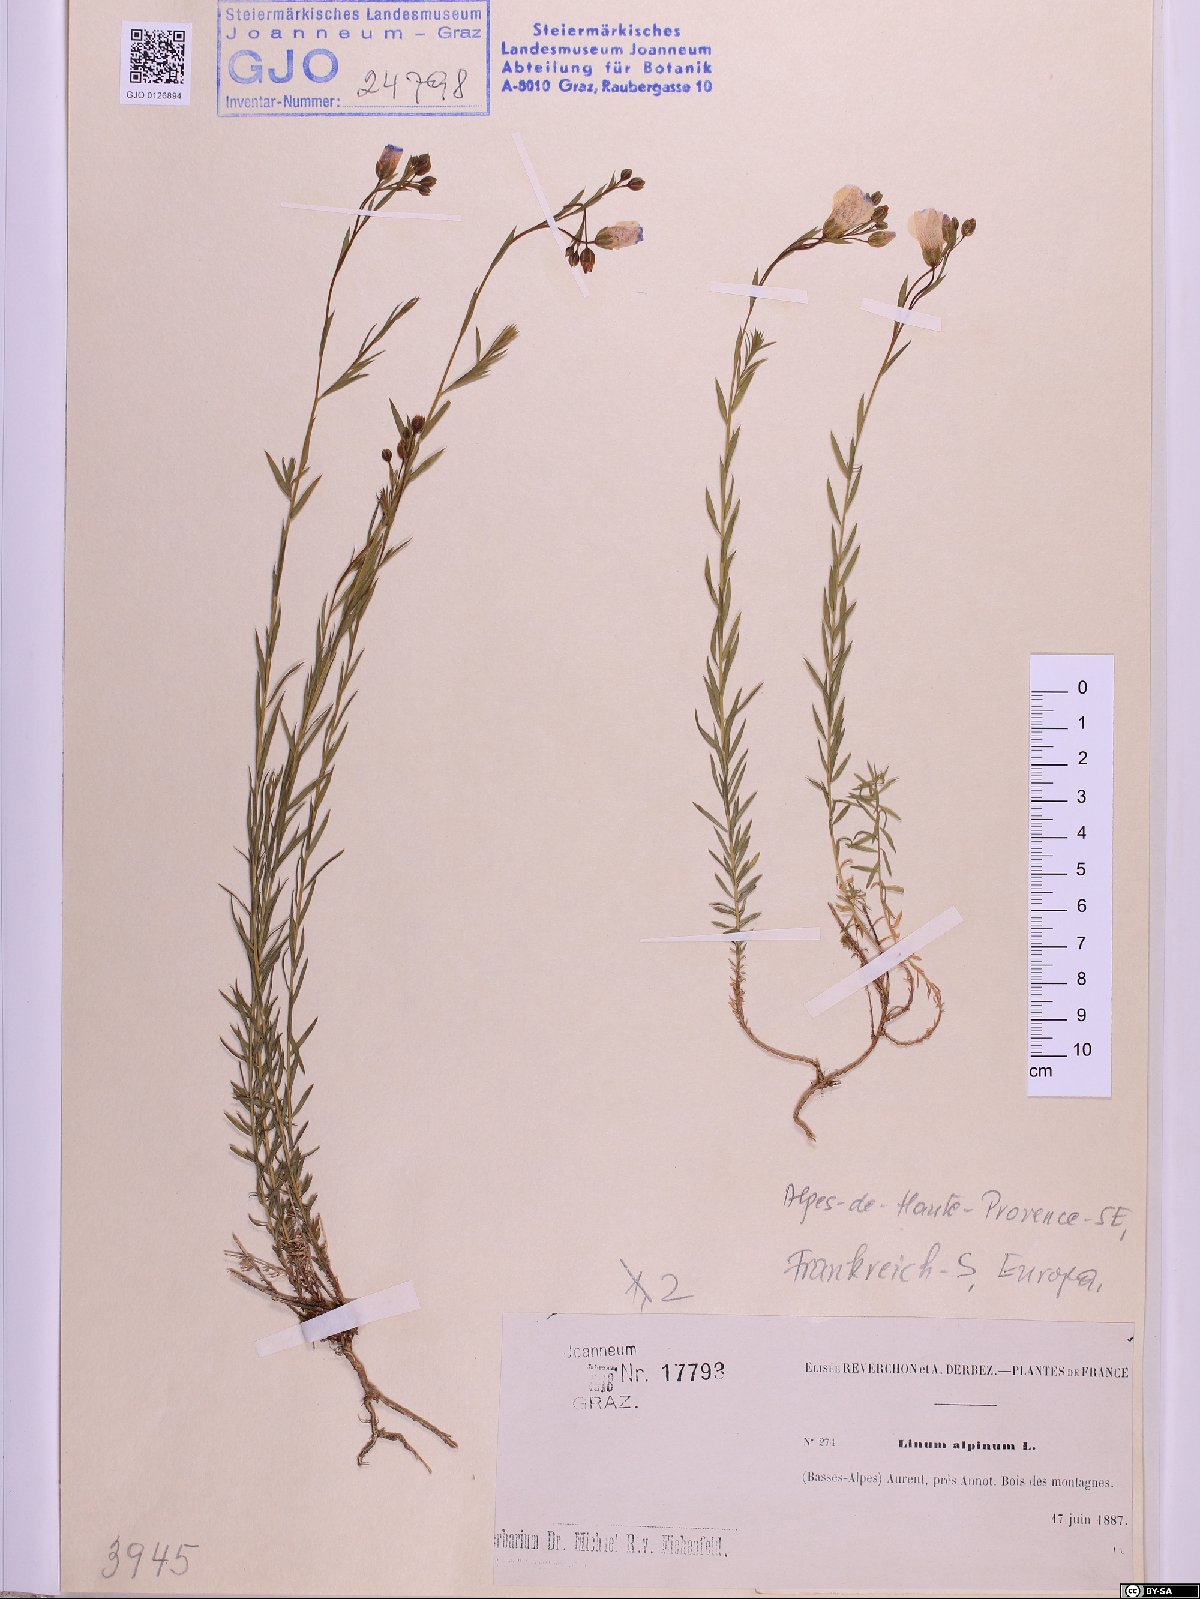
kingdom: Plantae
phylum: Tracheophyta
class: Magnoliopsida
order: Malpighiales
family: Linaceae
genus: Linum
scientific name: Linum alpinum
